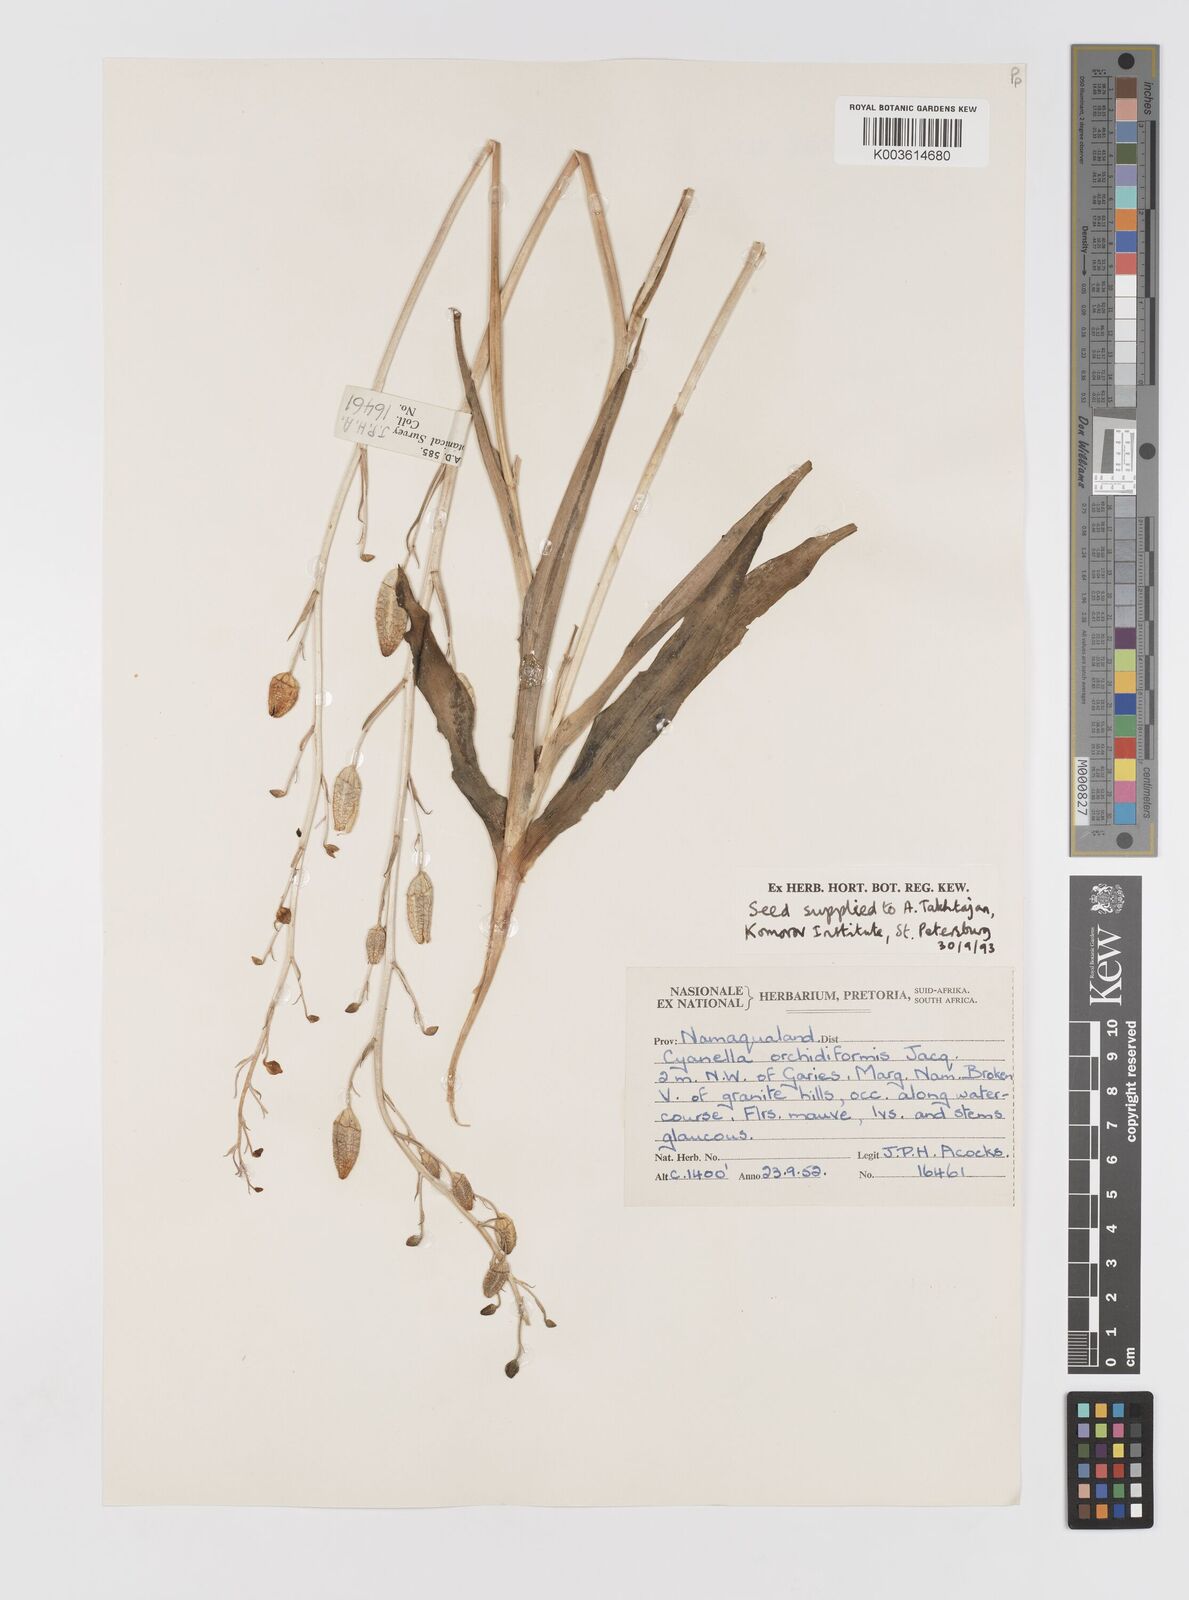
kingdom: Plantae
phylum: Tracheophyta
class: Liliopsida
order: Asparagales
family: Tecophilaeaceae
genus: Cyanella
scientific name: Cyanella orchidiformis
